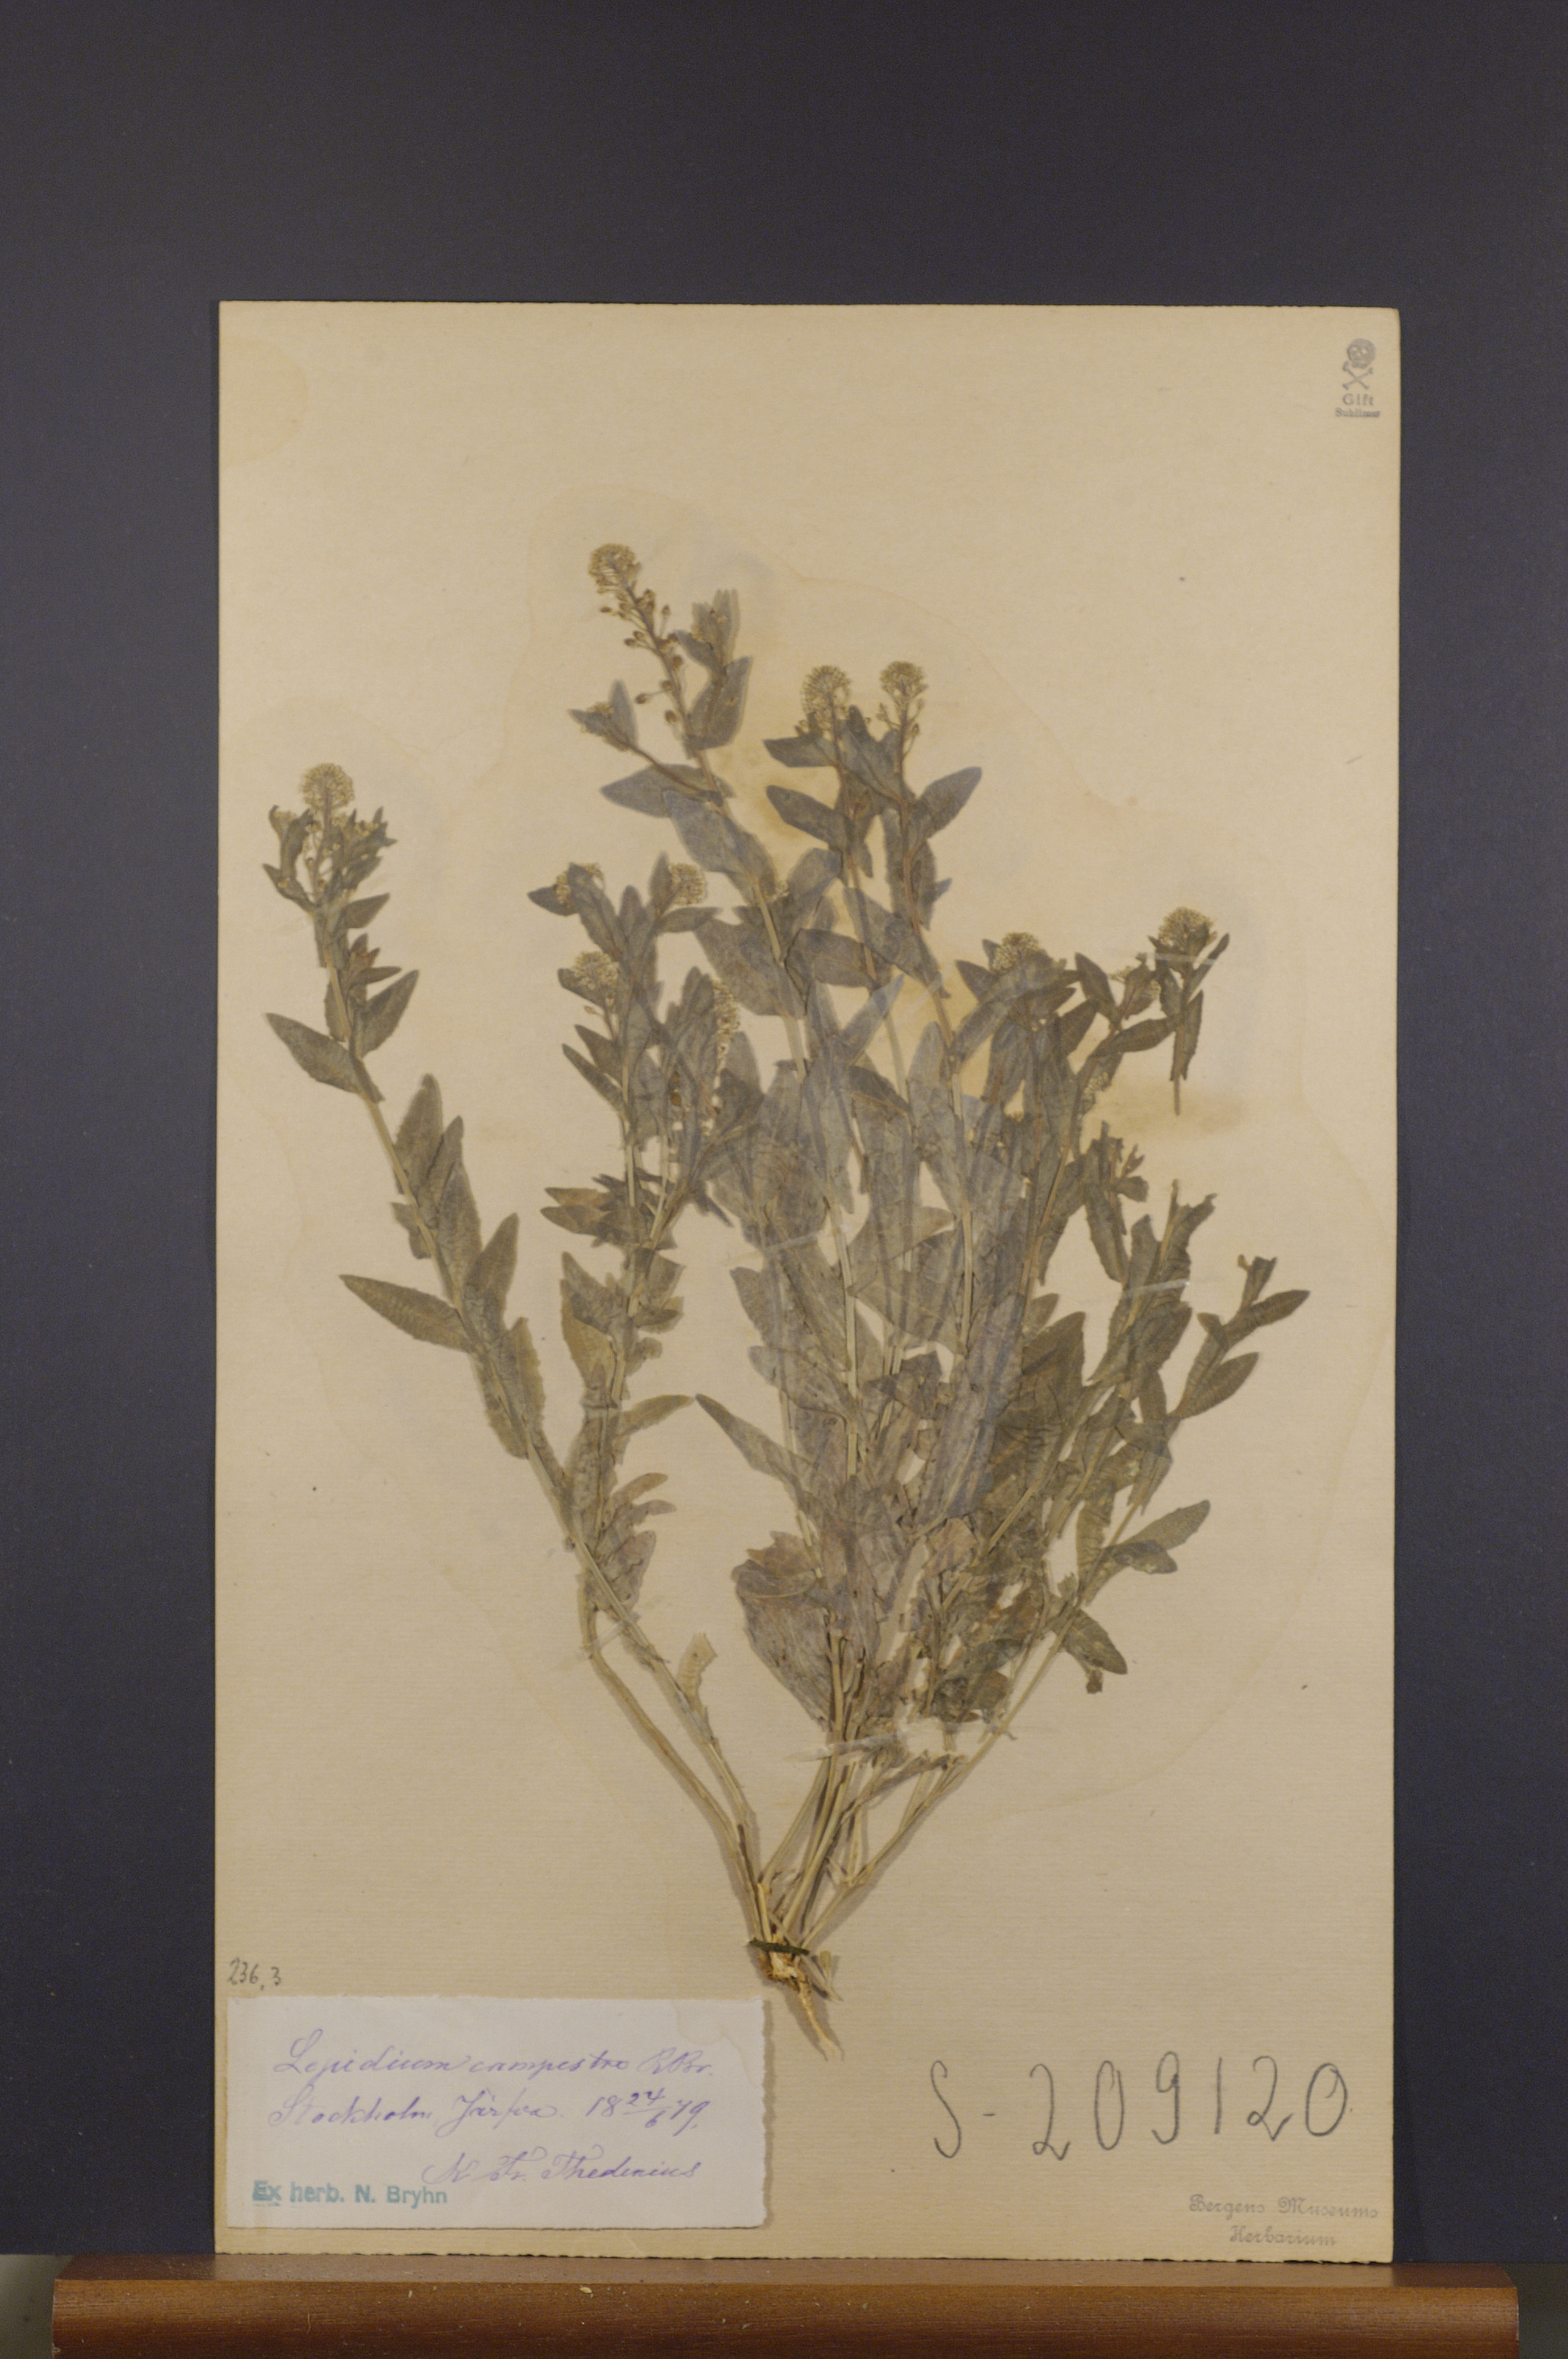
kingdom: Plantae
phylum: Tracheophyta
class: Magnoliopsida
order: Brassicales
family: Brassicaceae
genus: Lepidium
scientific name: Lepidium campestre
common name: Field pepperwort
